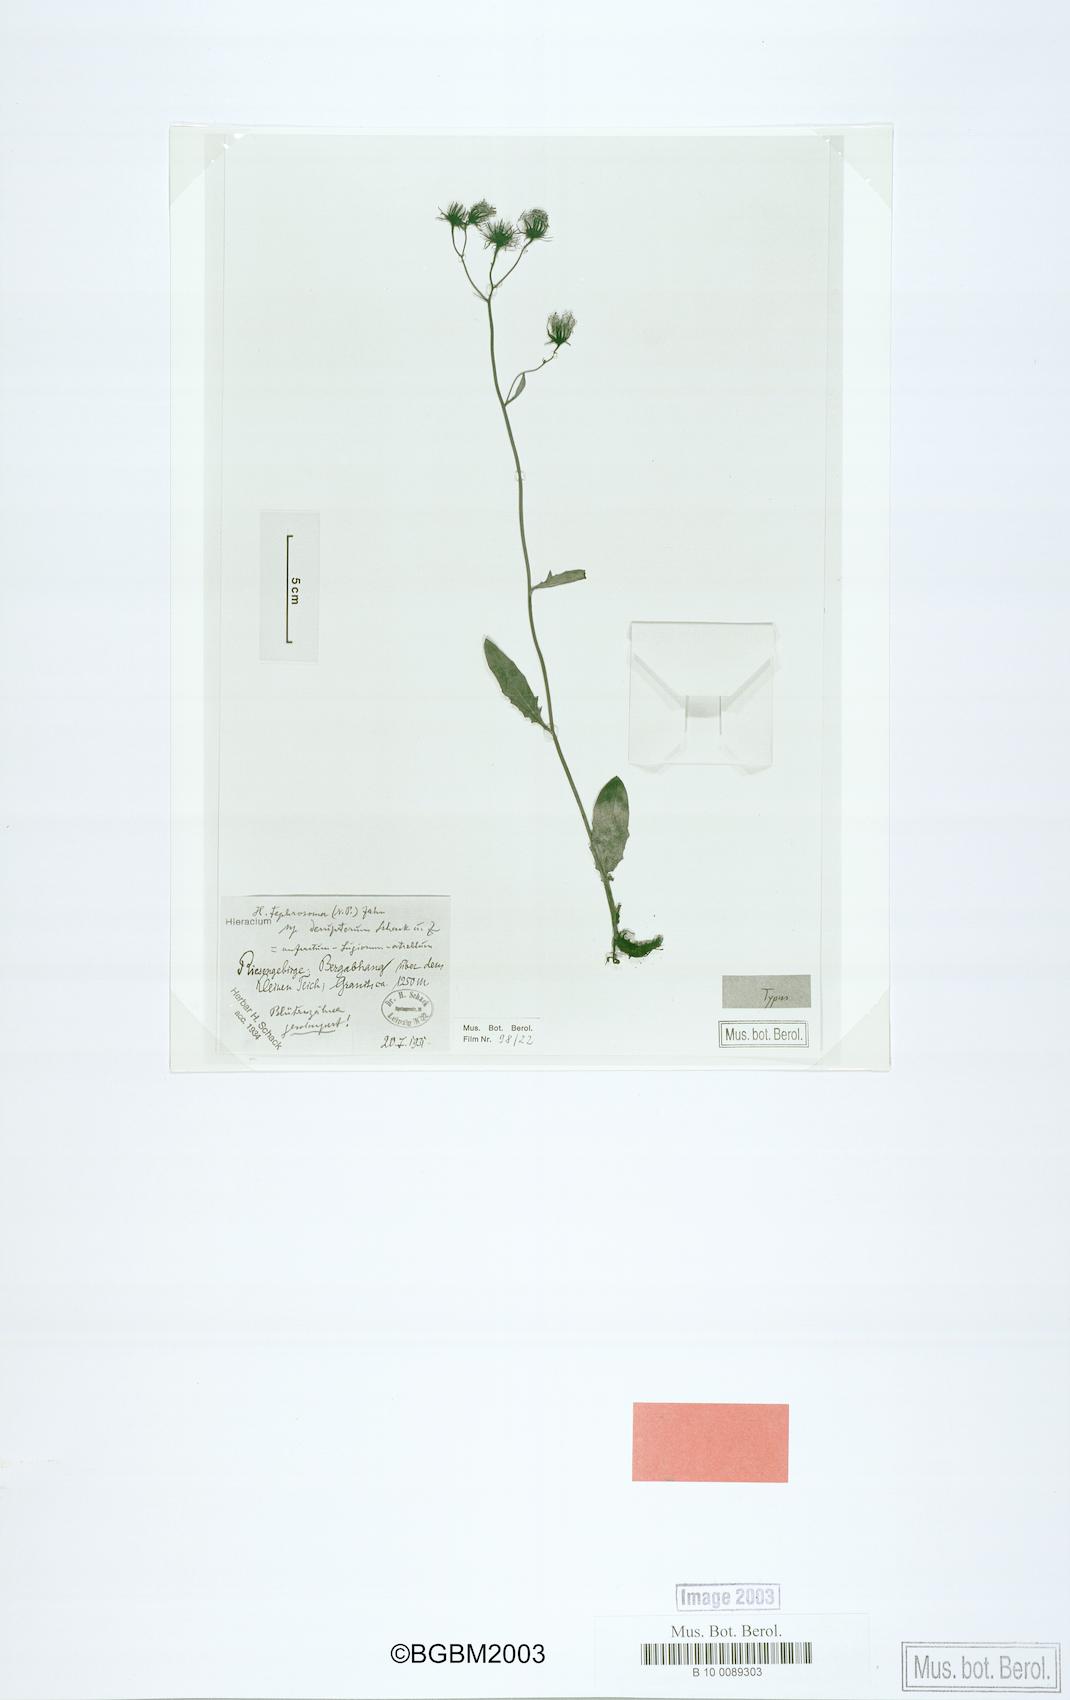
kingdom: Plantae
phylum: Tracheophyta
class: Magnoliopsida
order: Asterales
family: Asteraceae
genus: Hieracium
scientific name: Hieracium tephrosoma
